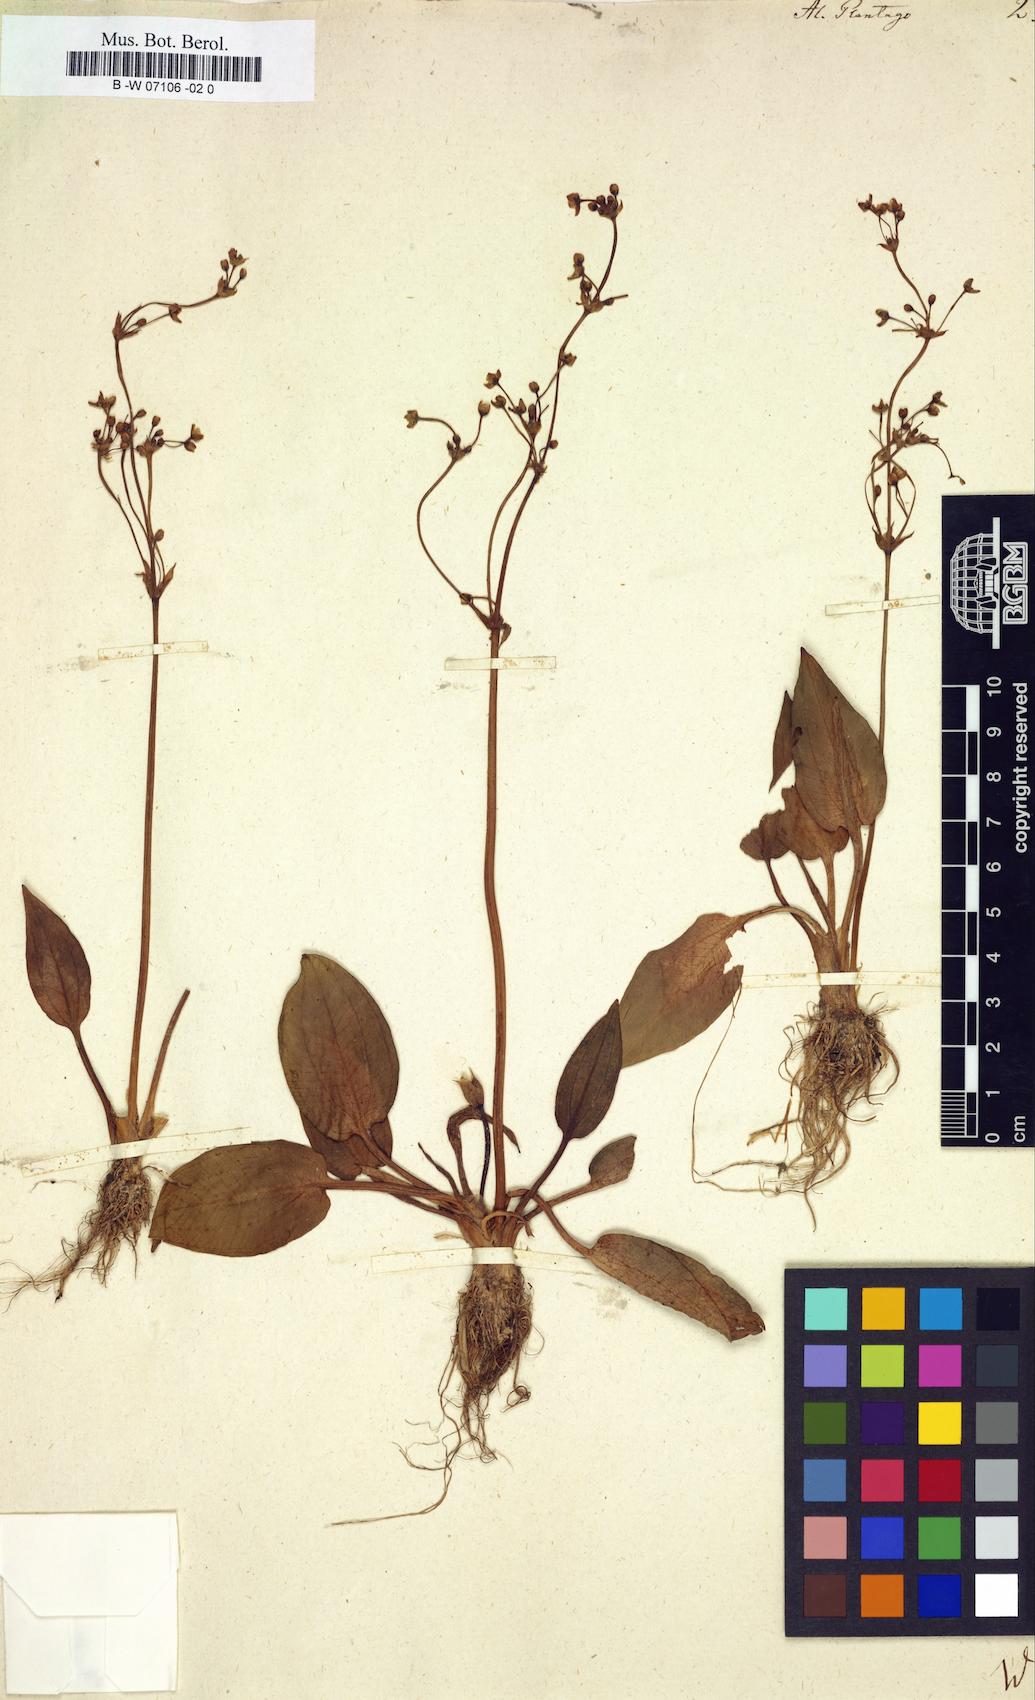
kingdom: Plantae
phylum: Tracheophyta
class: Liliopsida
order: Alismatales
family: Alismataceae
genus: Alisma
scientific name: Alisma plantago-aquatica
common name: Water-plantain
